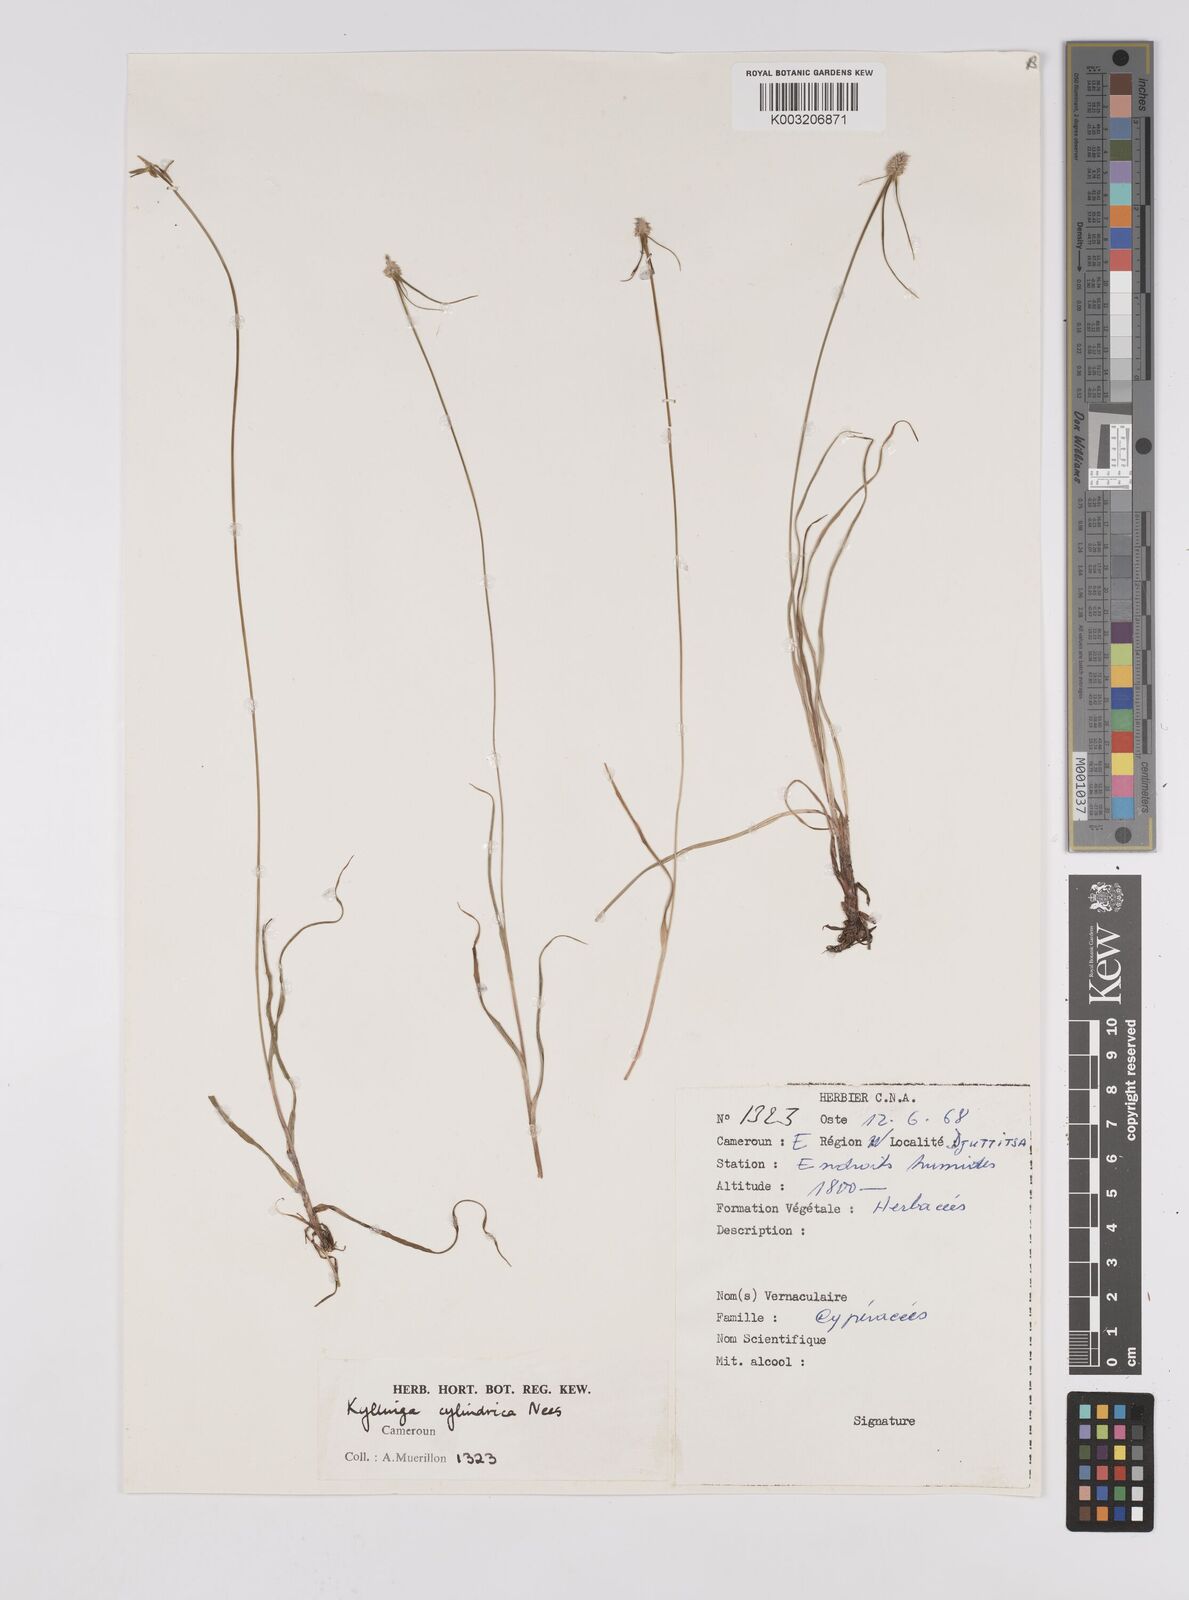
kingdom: Plantae
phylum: Tracheophyta
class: Liliopsida
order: Poales
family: Cyperaceae
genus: Cyperus
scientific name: Cyperus odoratus
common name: Fragrant flatsedge
